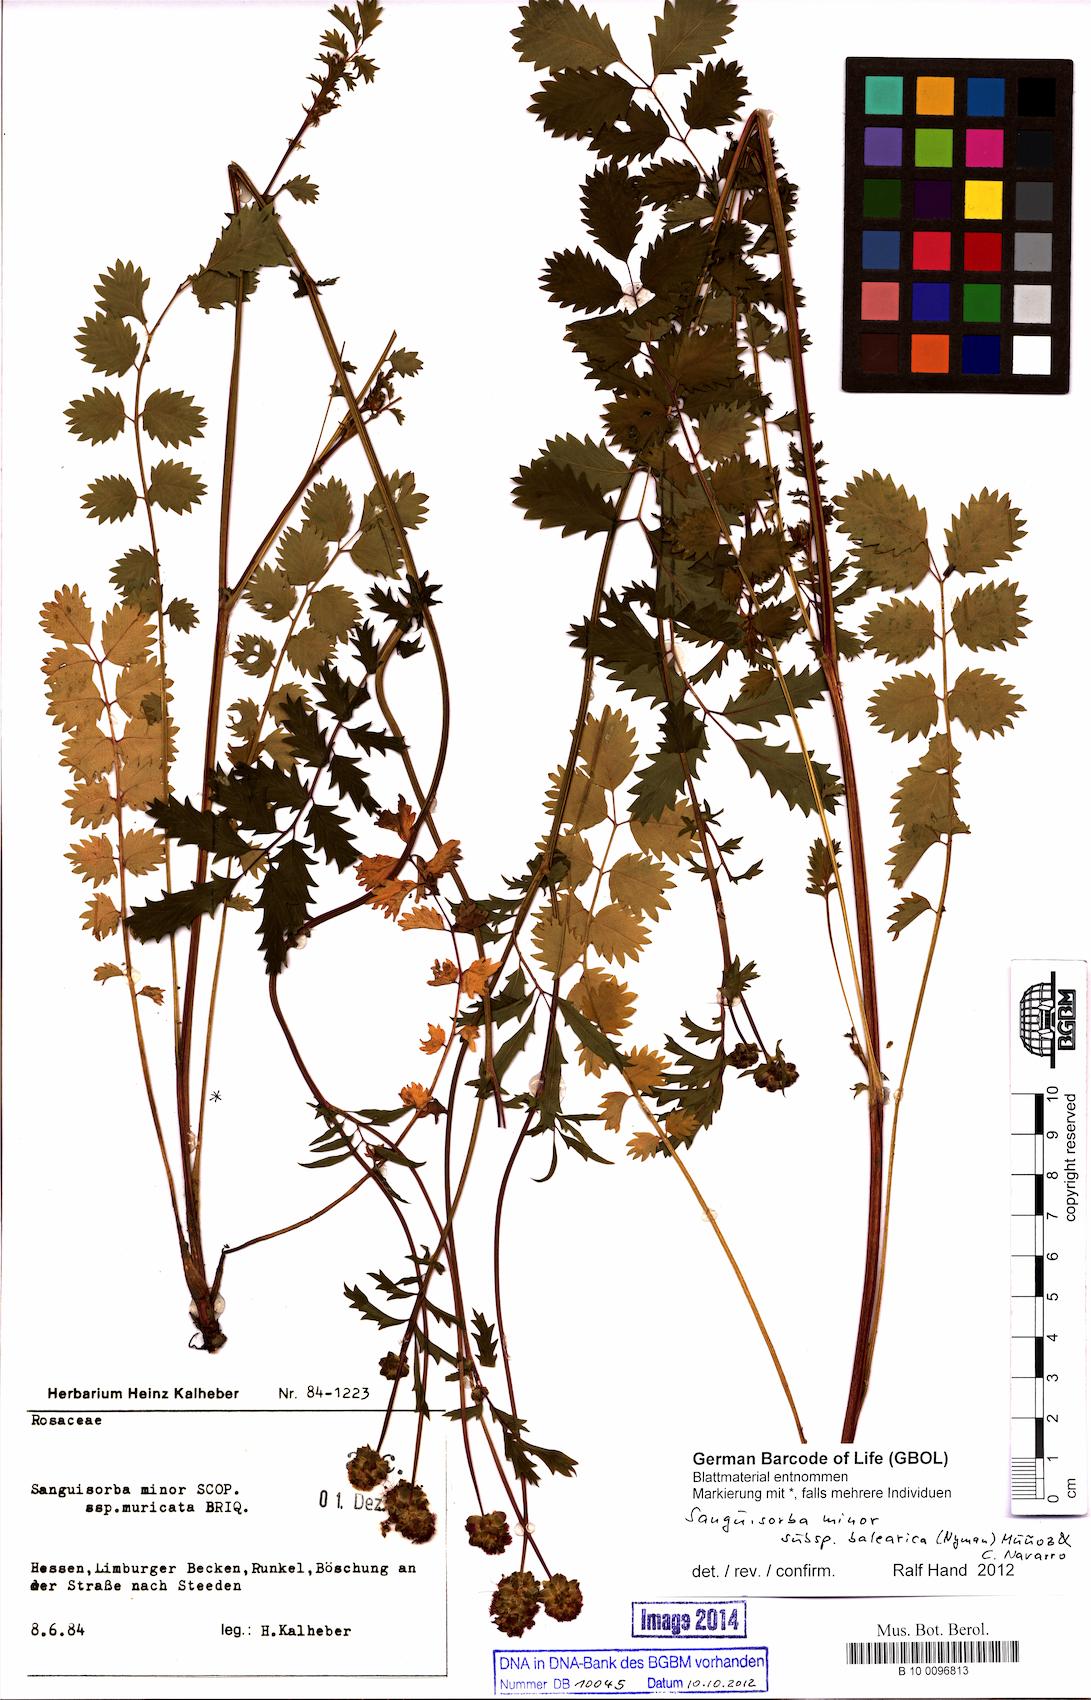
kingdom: Plantae
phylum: Tracheophyta
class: Magnoliopsida
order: Rosales
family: Rosaceae
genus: Poterium
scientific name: Poterium sanguisorba
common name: Salad burnet
